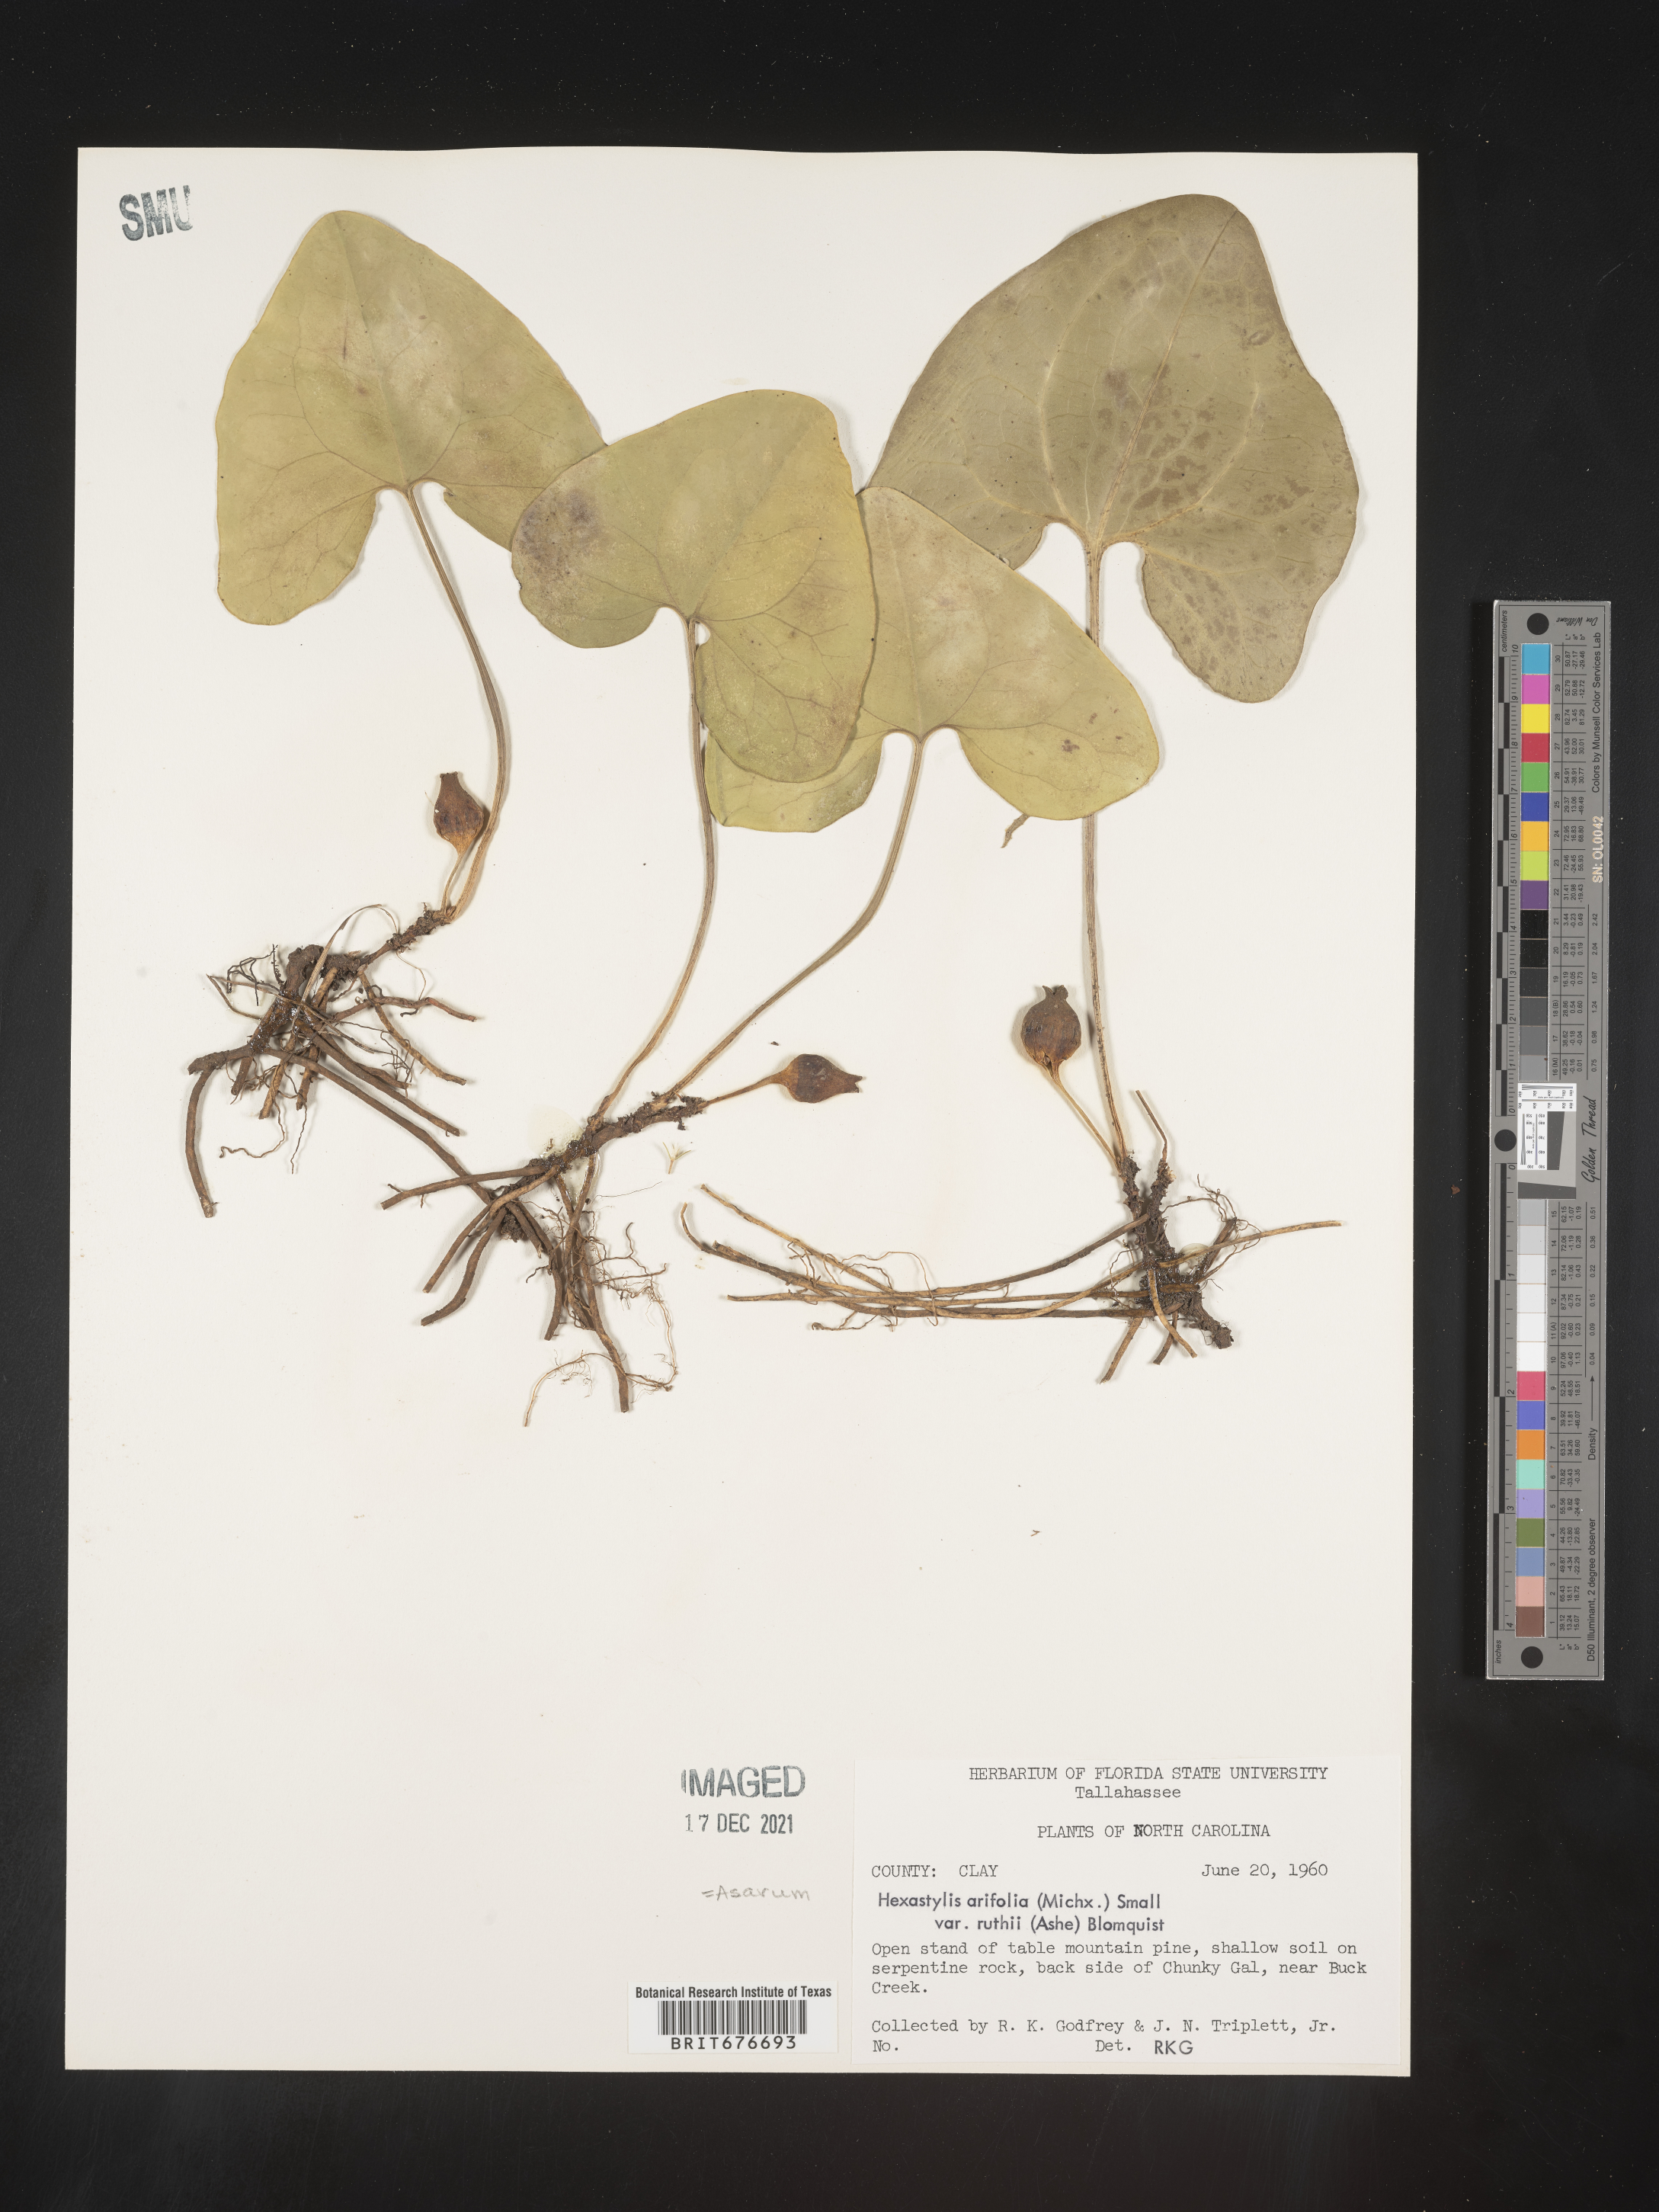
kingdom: Plantae
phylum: Tracheophyta
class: Magnoliopsida
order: Piperales
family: Aristolochiaceae
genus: Hexastylis
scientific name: Hexastylis arifolia
